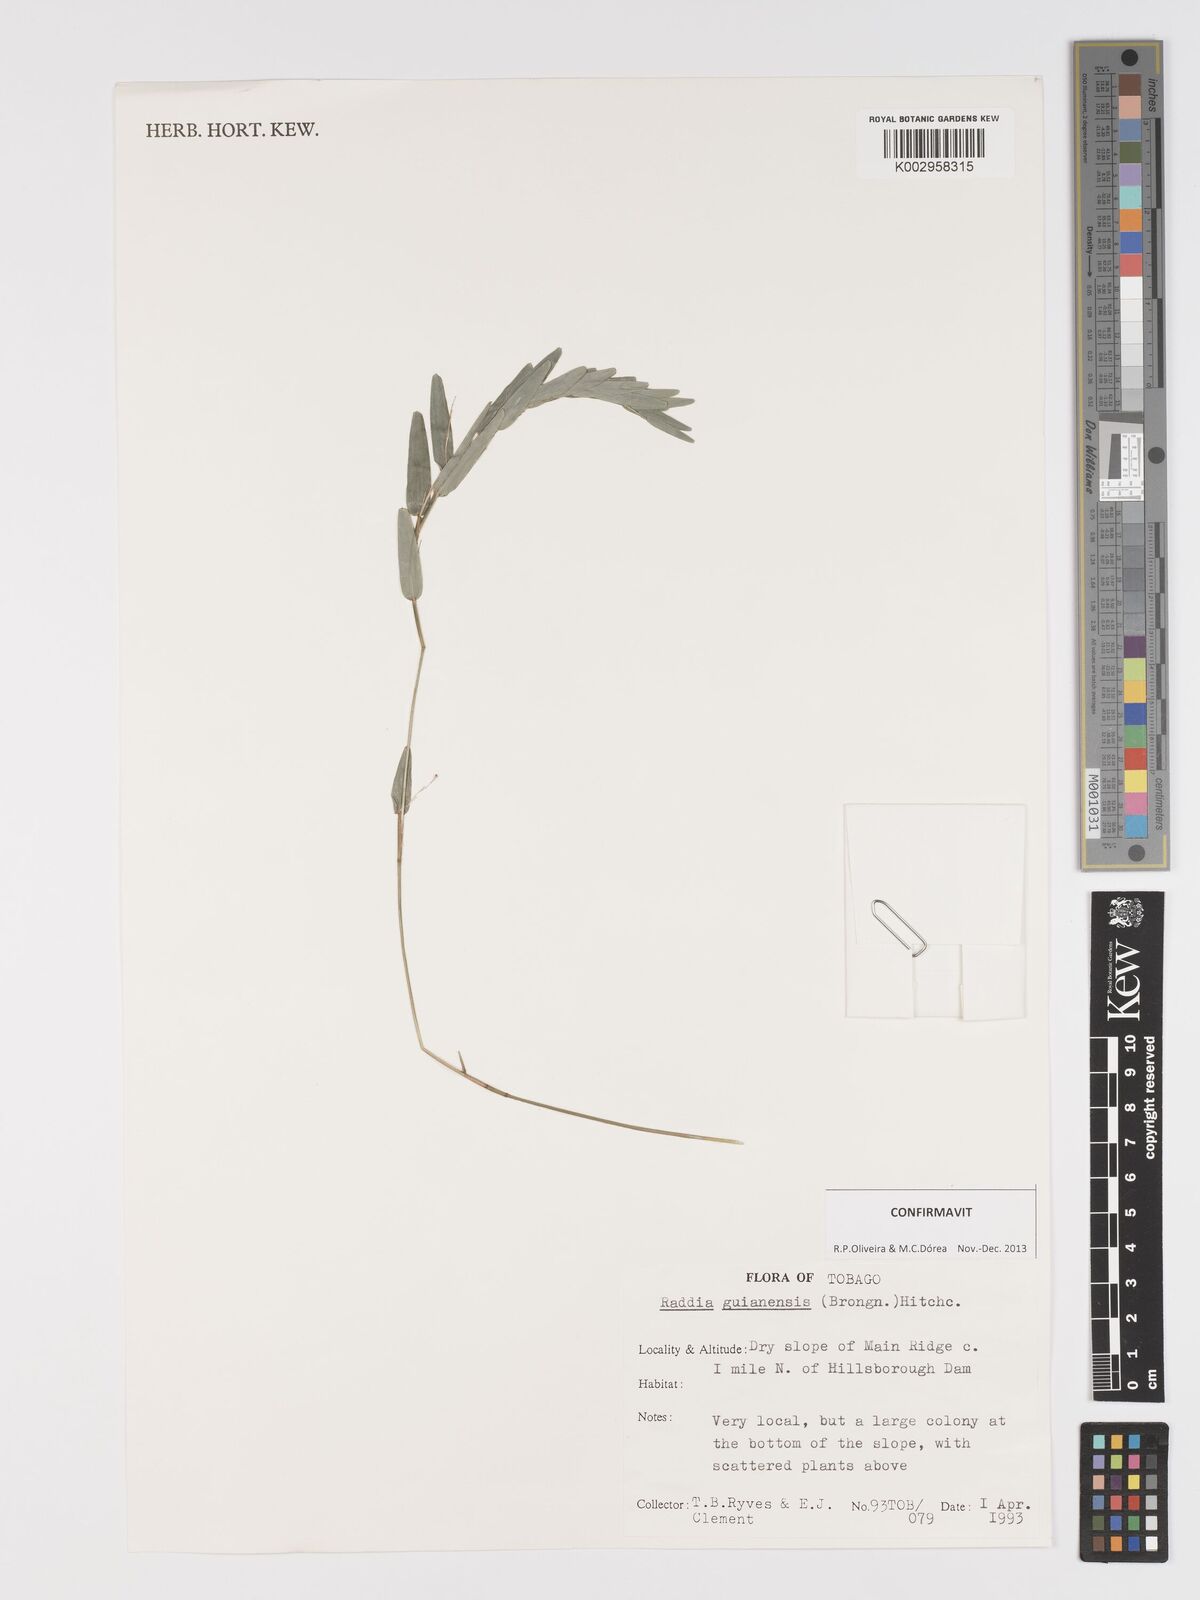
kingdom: Plantae
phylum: Tracheophyta
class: Liliopsida
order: Poales
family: Poaceae
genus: Raddia
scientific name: Raddia guianensis
